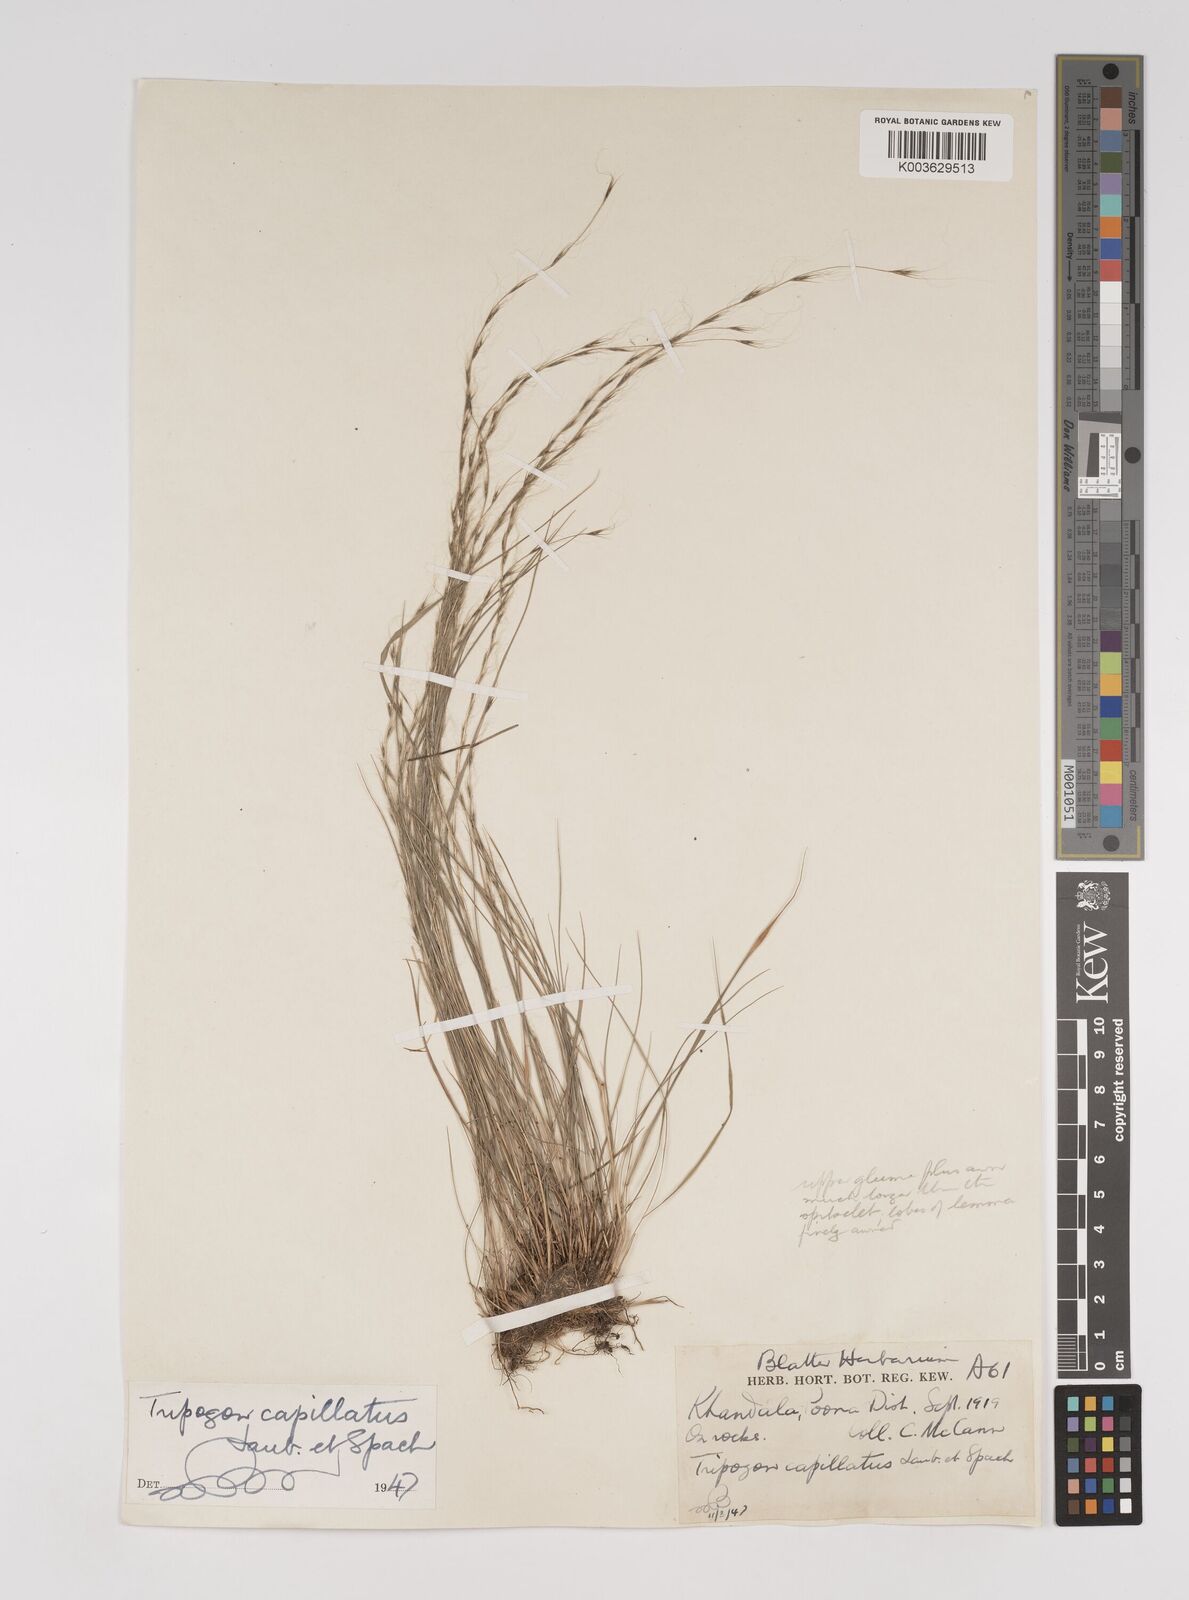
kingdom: Plantae
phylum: Tracheophyta
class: Liliopsida
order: Poales
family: Poaceae
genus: Tripogon
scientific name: Tripogon capillatus
